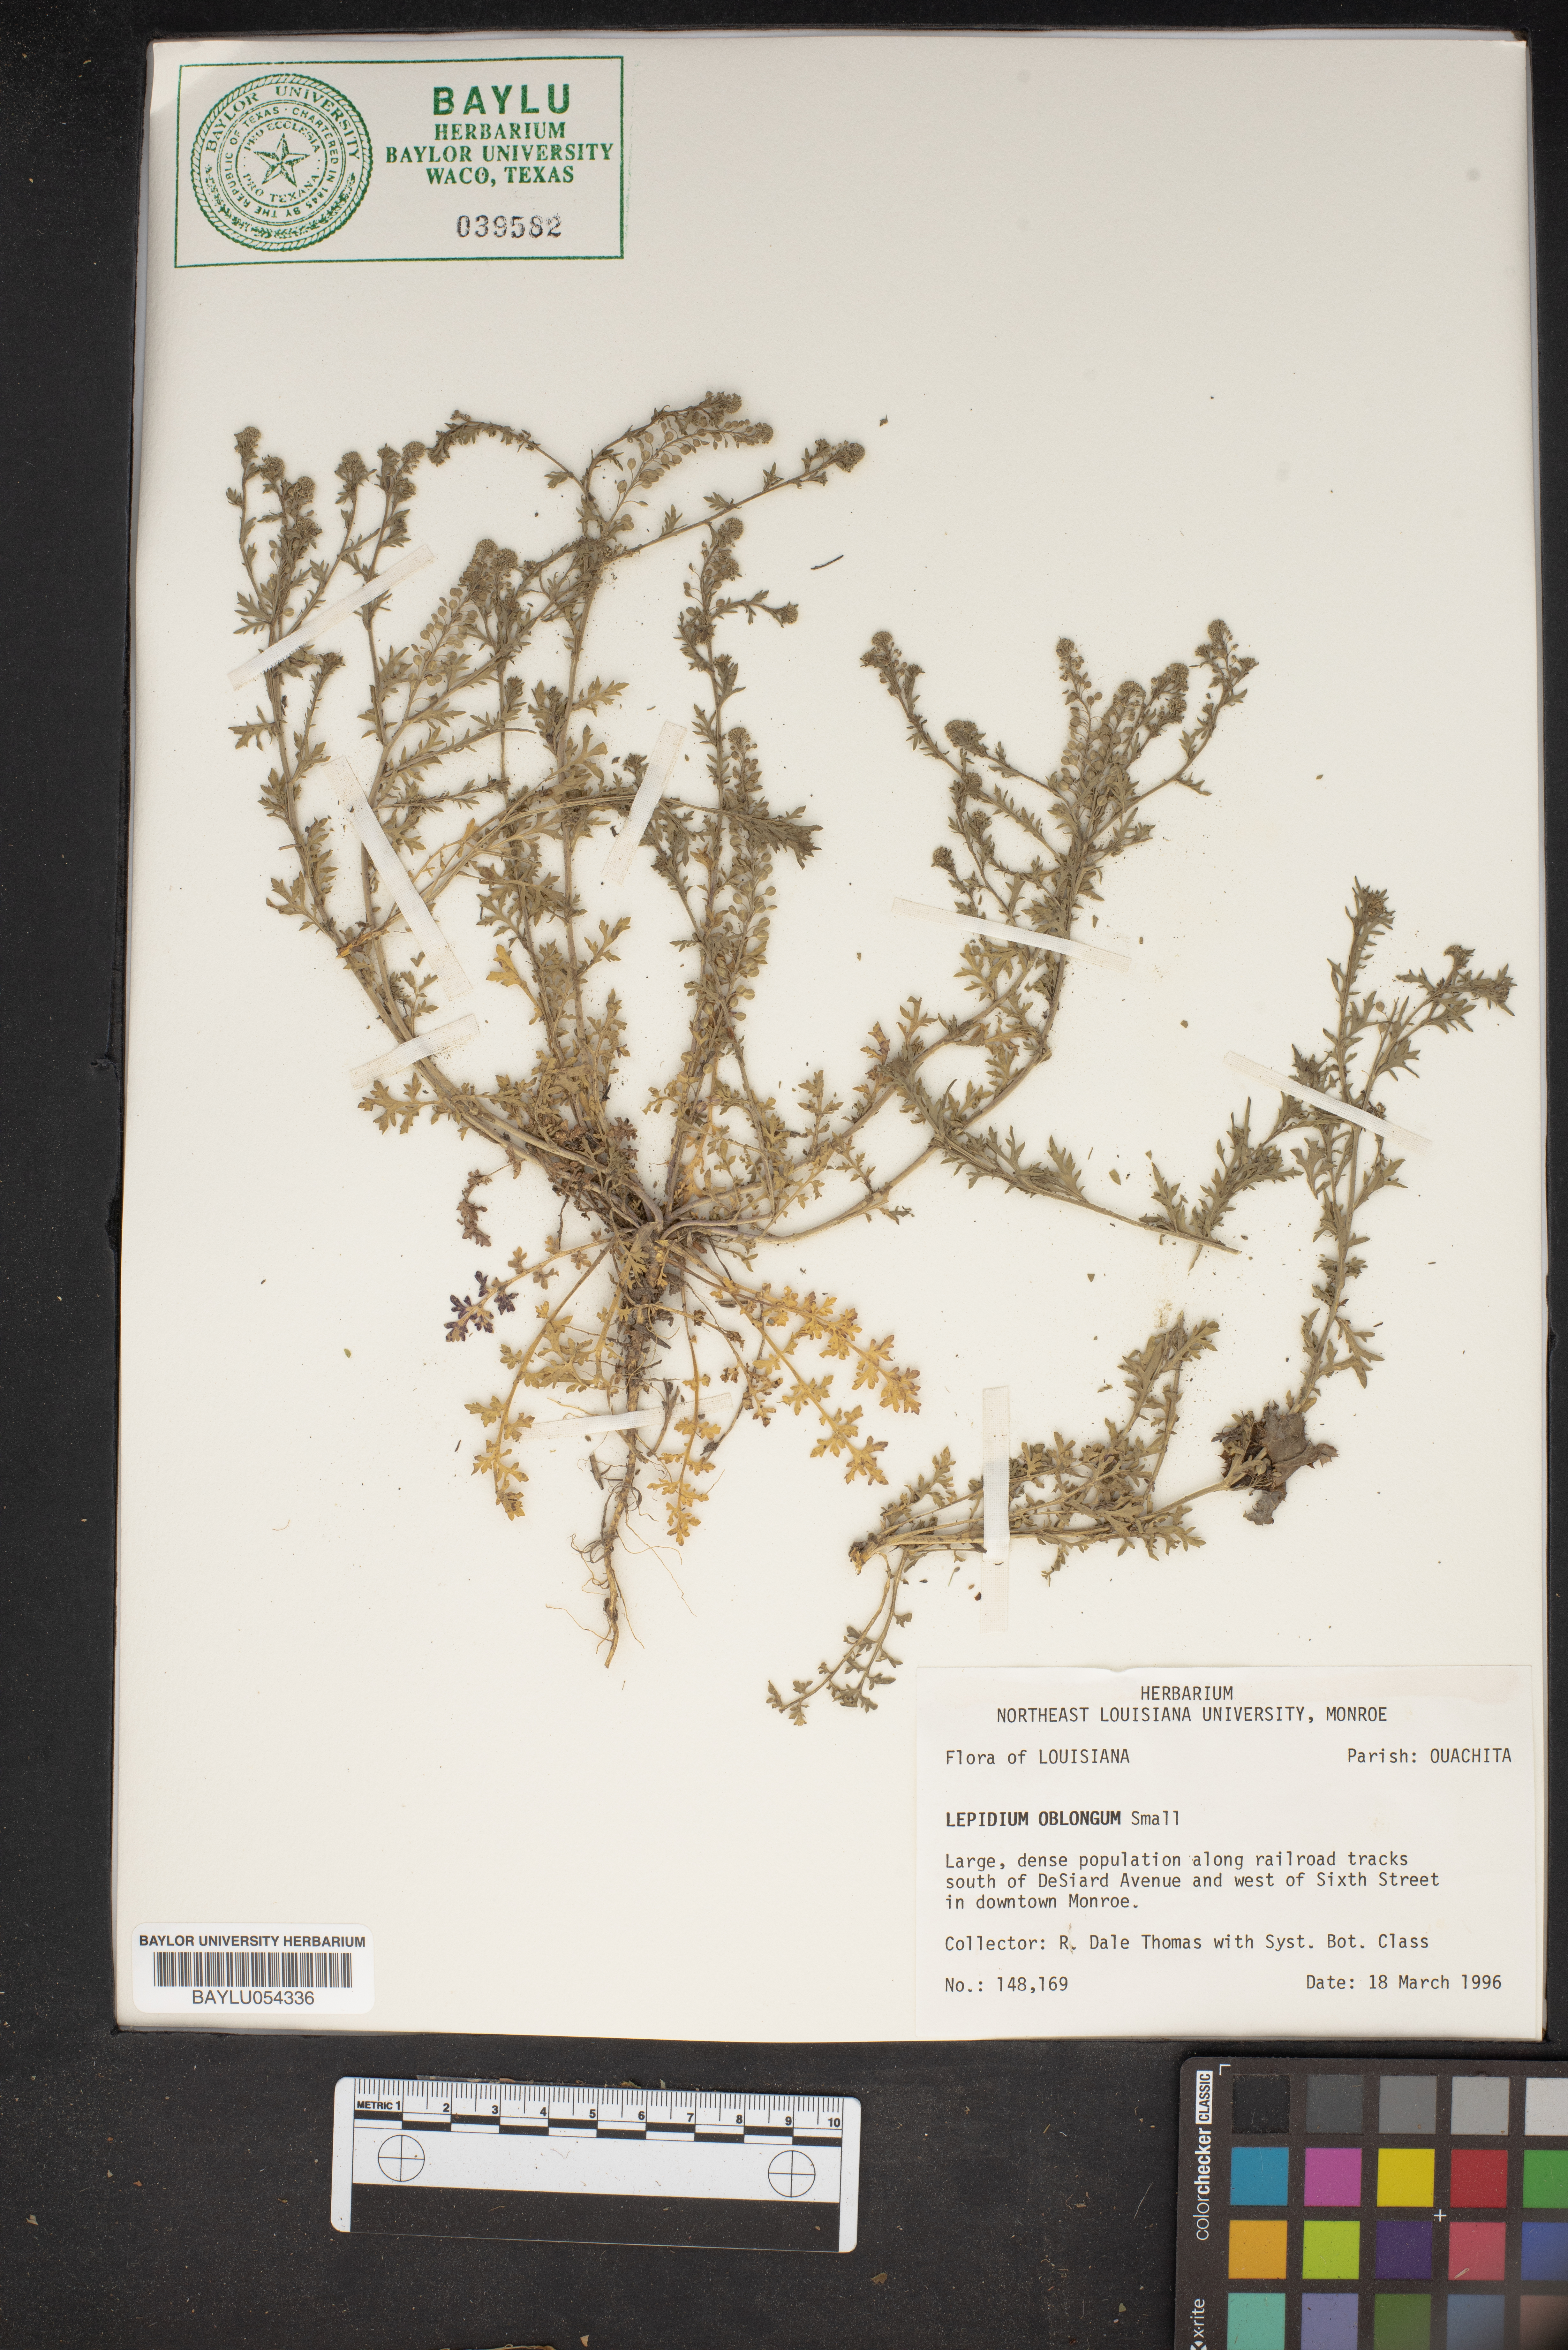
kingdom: Plantae
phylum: Tracheophyta
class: Magnoliopsida
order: Brassicales
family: Brassicaceae
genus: Lepidium
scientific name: Lepidium oblongum
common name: Veiny pepperweed
